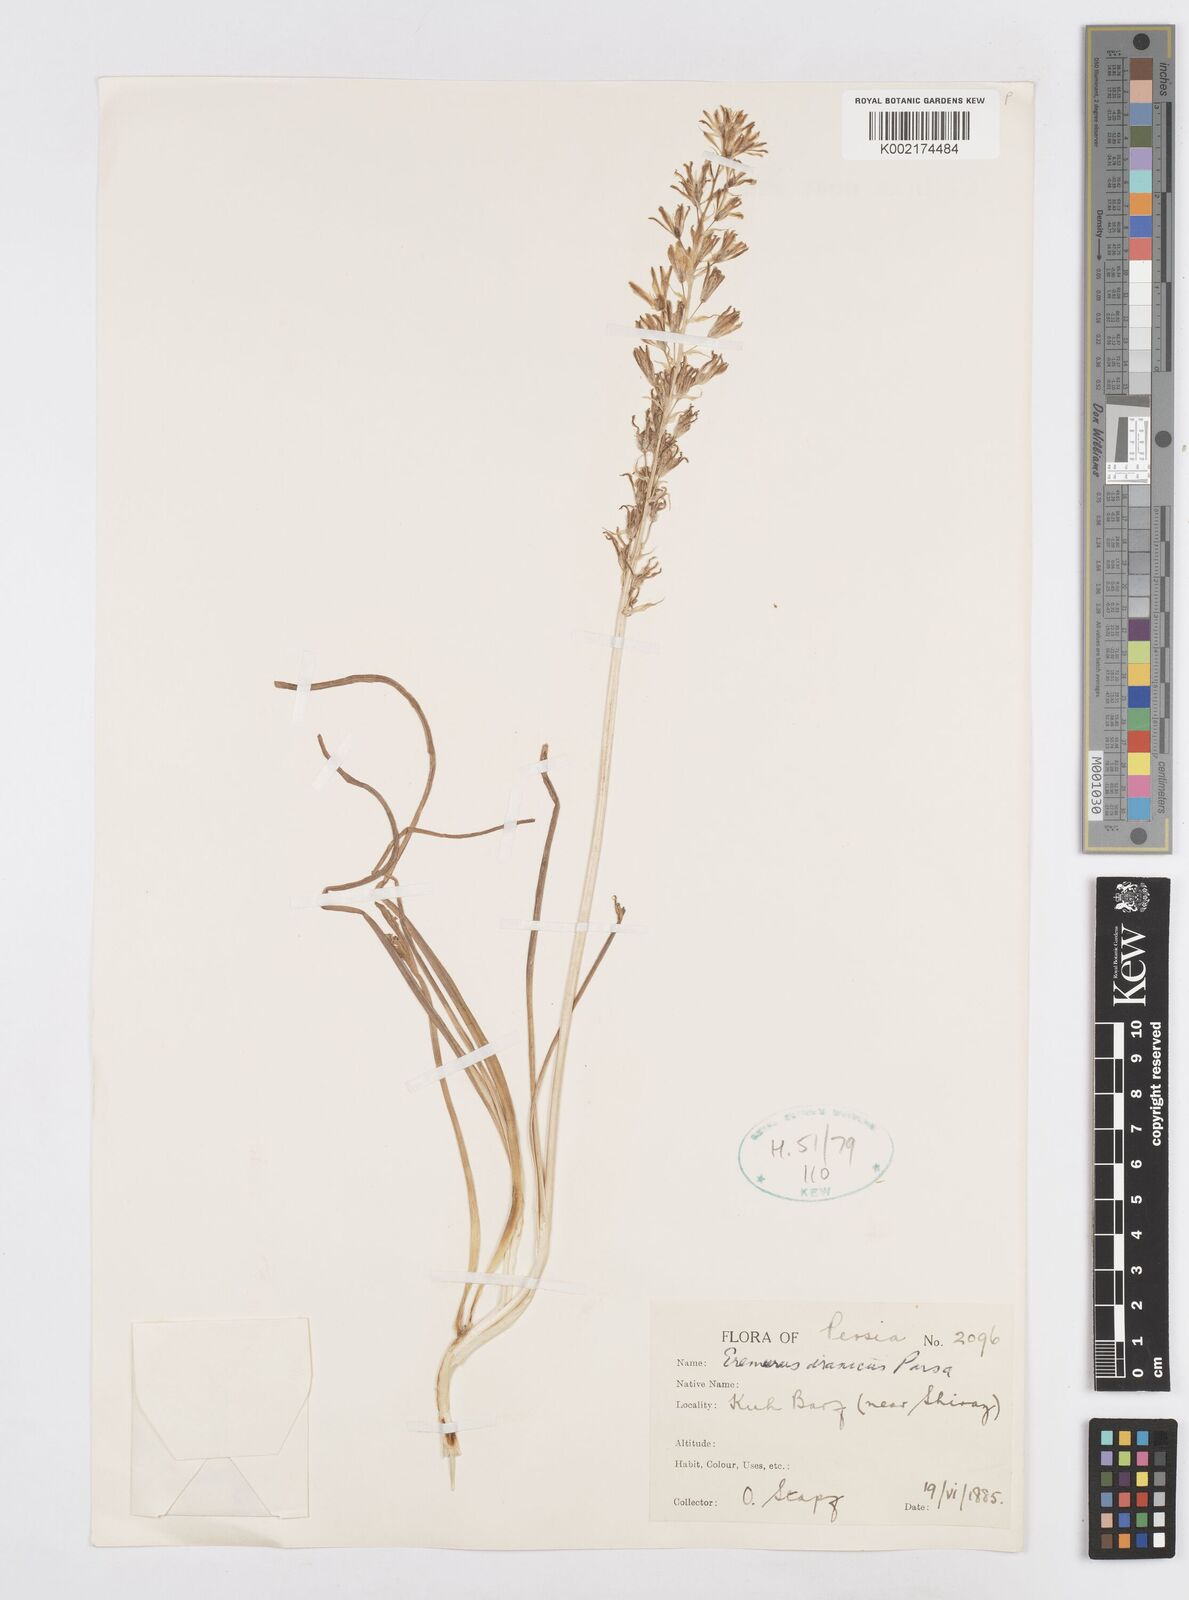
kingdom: Plantae
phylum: Tracheophyta
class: Liliopsida
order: Asparagales
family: Asparagaceae
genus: Ornithogalum
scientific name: Ornithogalum narbonense
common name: Bath-asparagus
